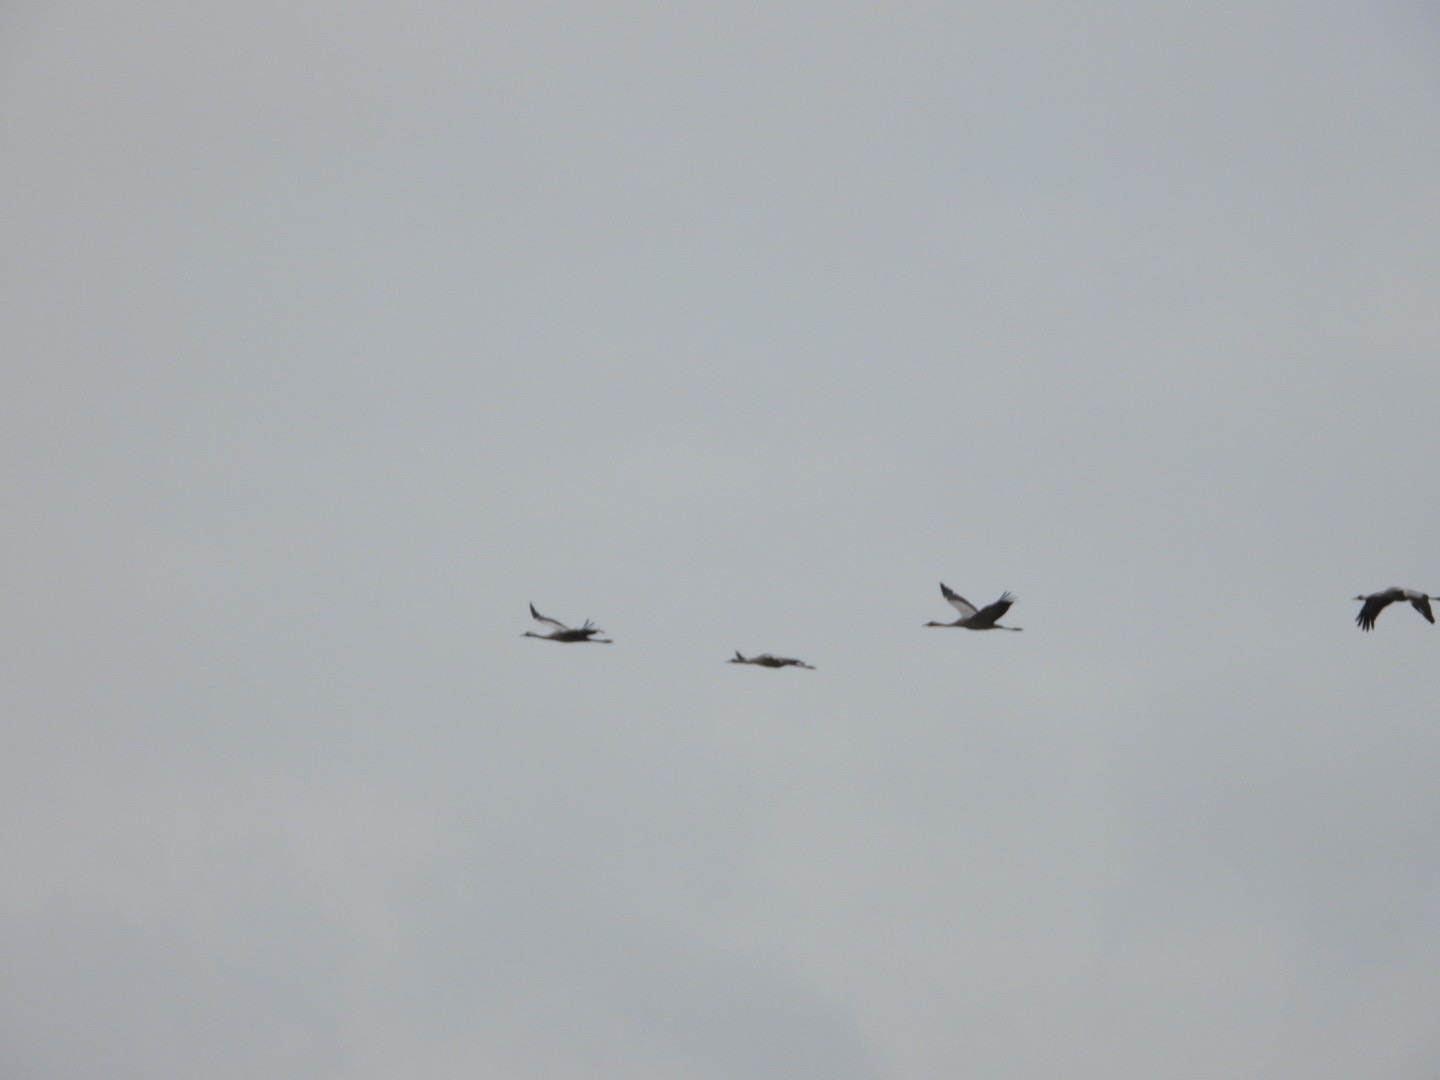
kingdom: Animalia
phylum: Chordata
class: Aves
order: Gruiformes
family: Gruidae
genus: Grus
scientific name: Grus grus
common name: Trane
